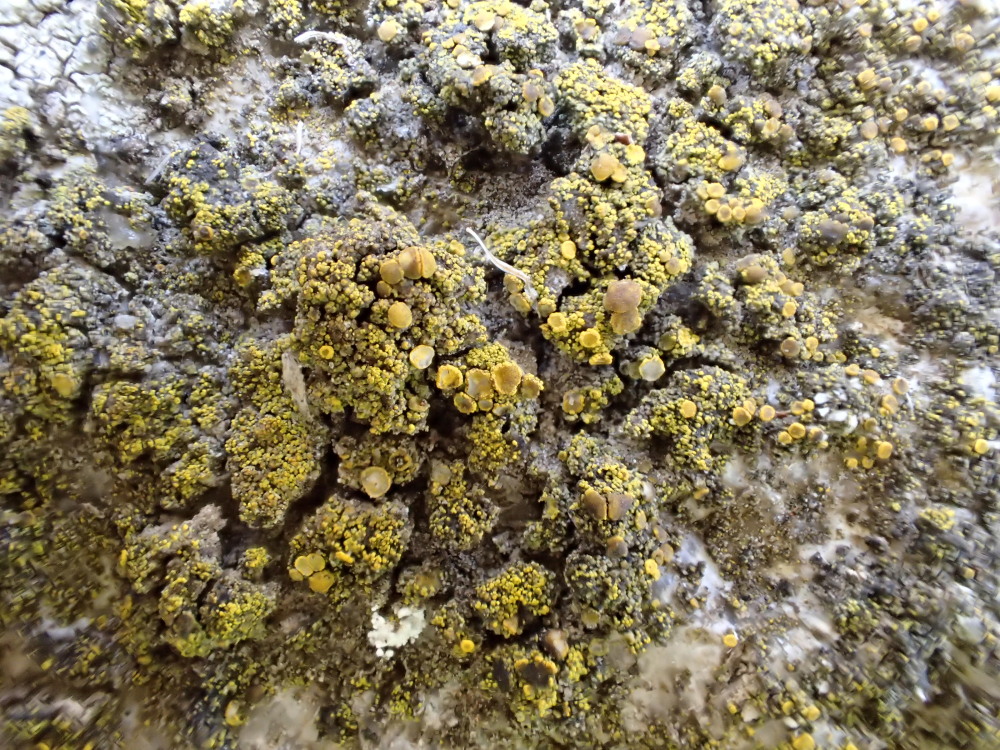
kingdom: Fungi
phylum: Ascomycota
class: Candelariomycetes
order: Candelariales
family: Candelariaceae
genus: Candelariella
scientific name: Candelariella vitellina
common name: almindelig æggeblommelav
